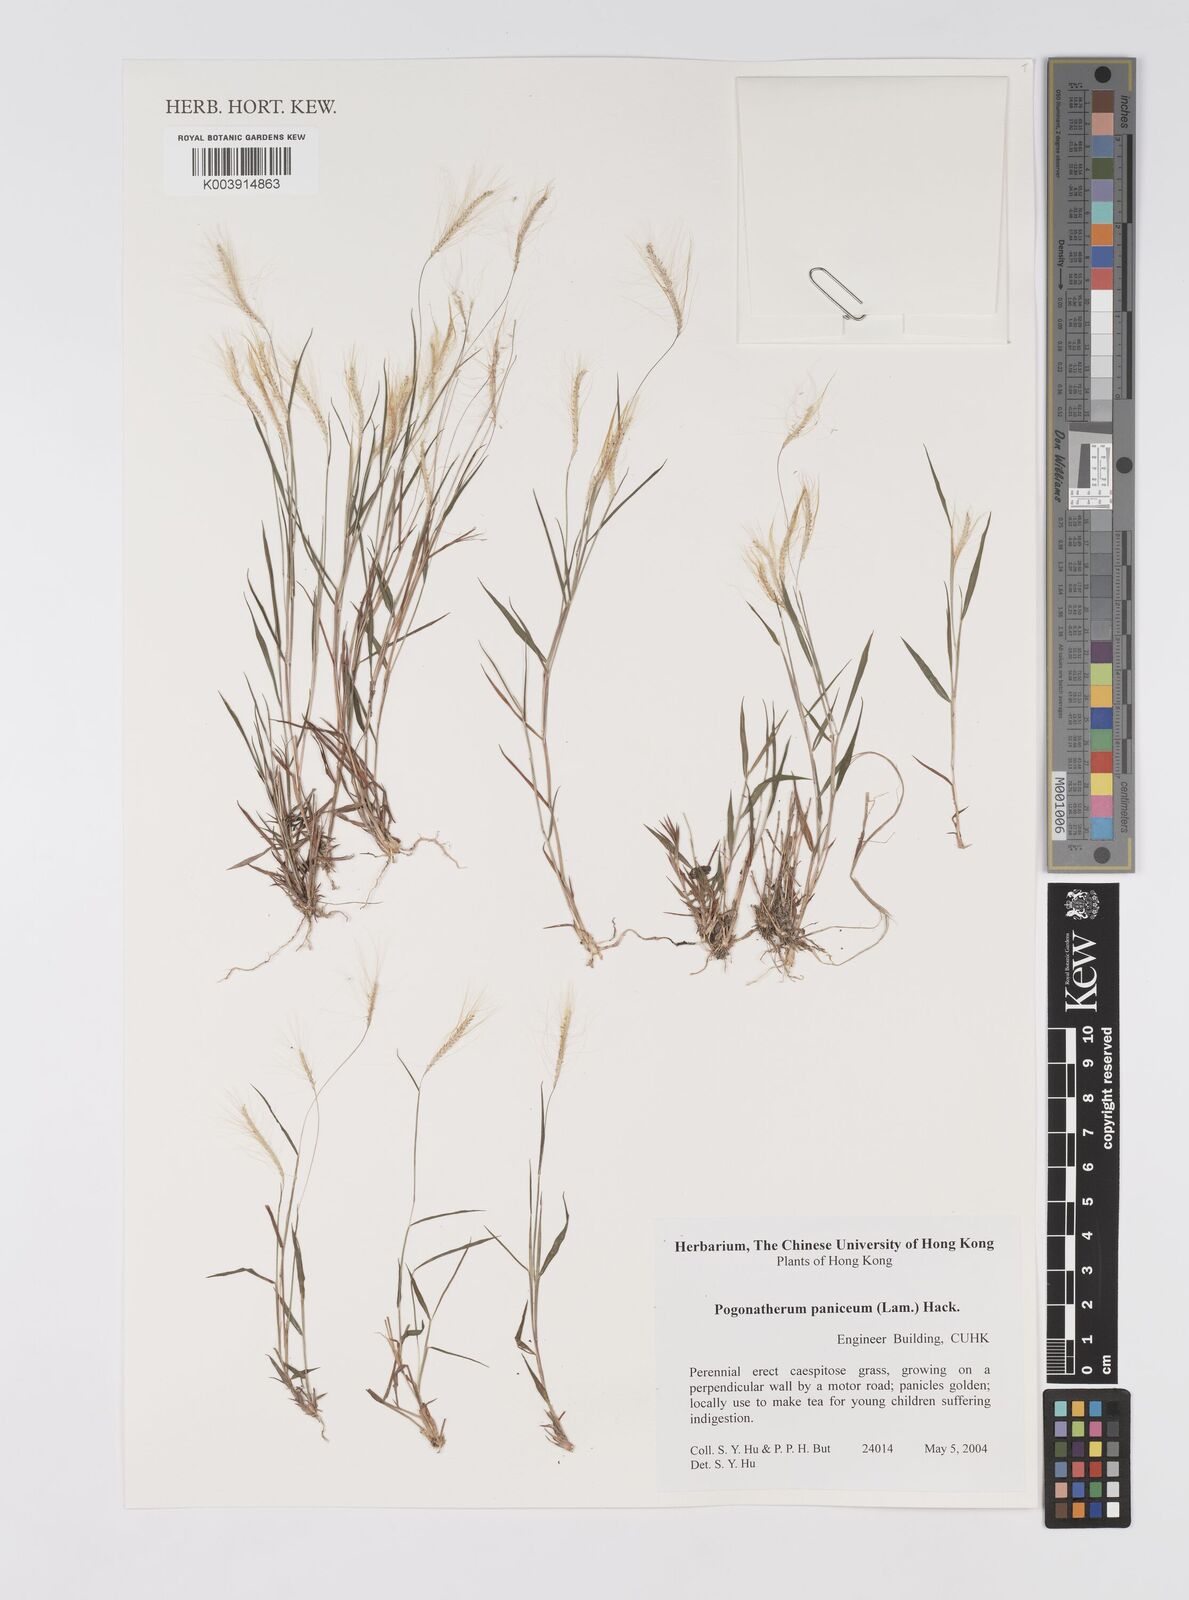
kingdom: Plantae
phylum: Tracheophyta
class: Liliopsida
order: Poales
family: Poaceae
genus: Pogonatherum
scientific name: Pogonatherum paniceum
